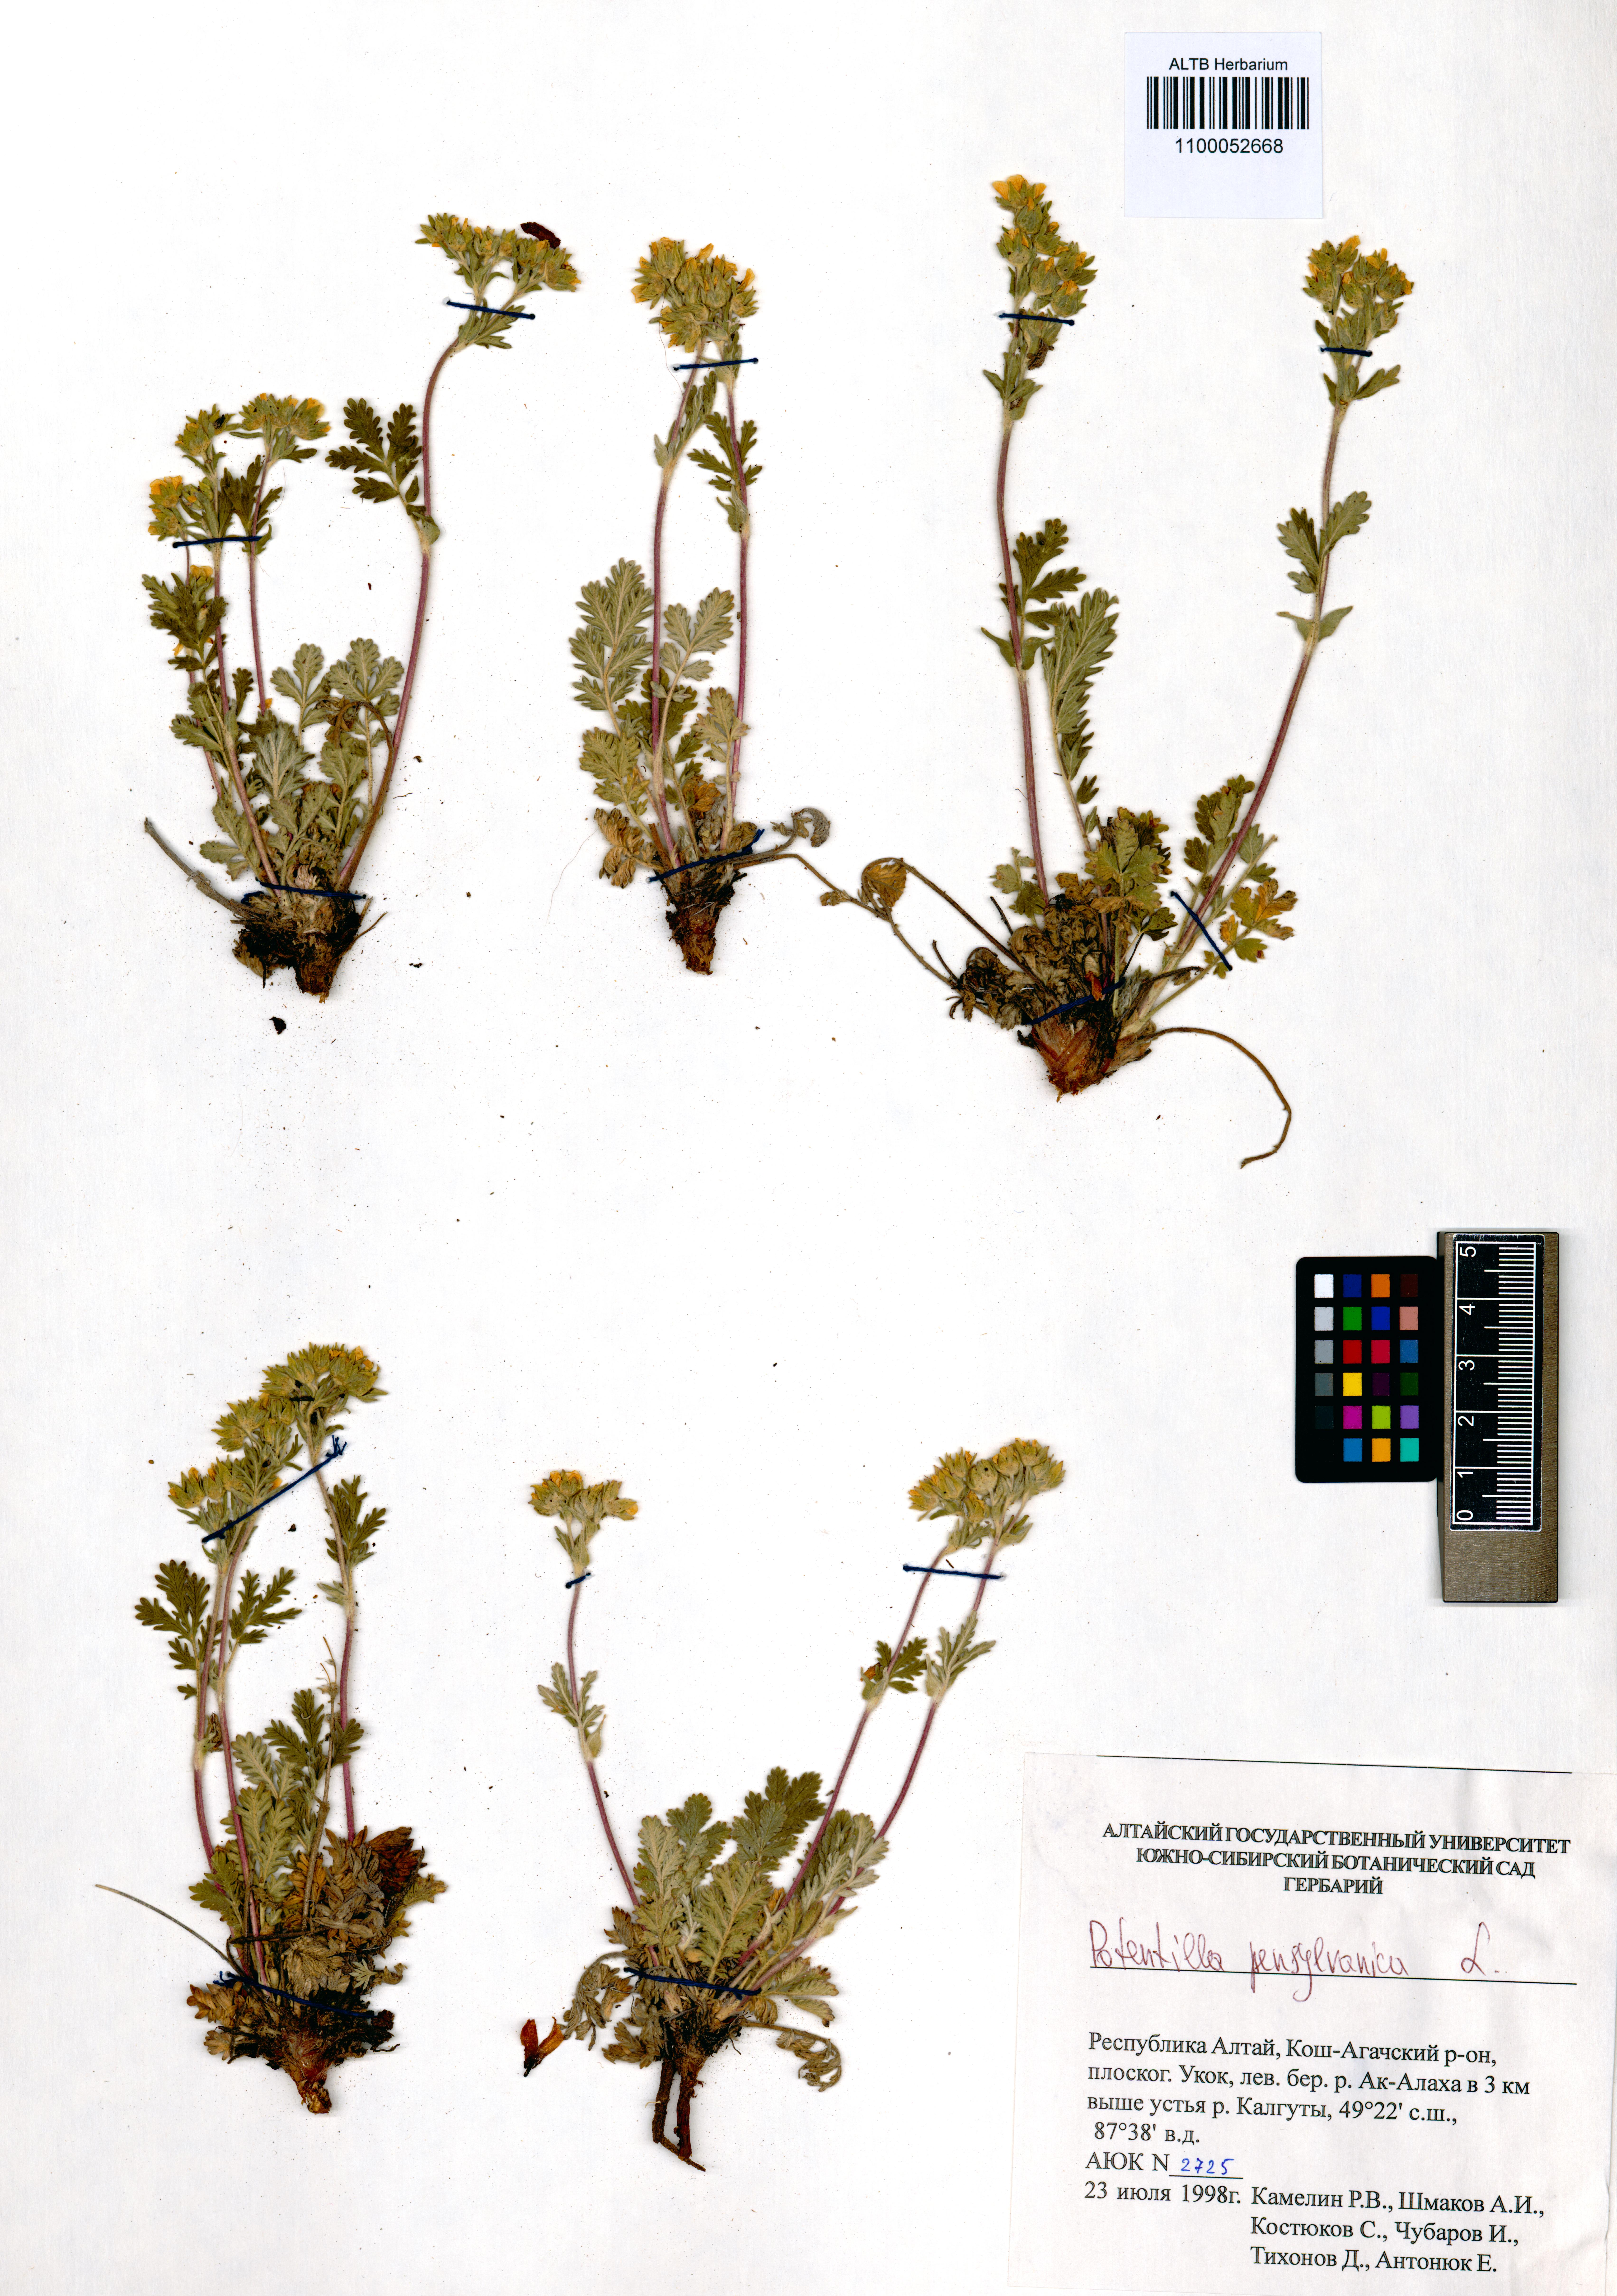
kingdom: Plantae
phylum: Tracheophyta
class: Magnoliopsida
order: Rosales
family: Rosaceae
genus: Potentilla
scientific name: Potentilla pensylvanica
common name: Pennsylvania cinquefoil
